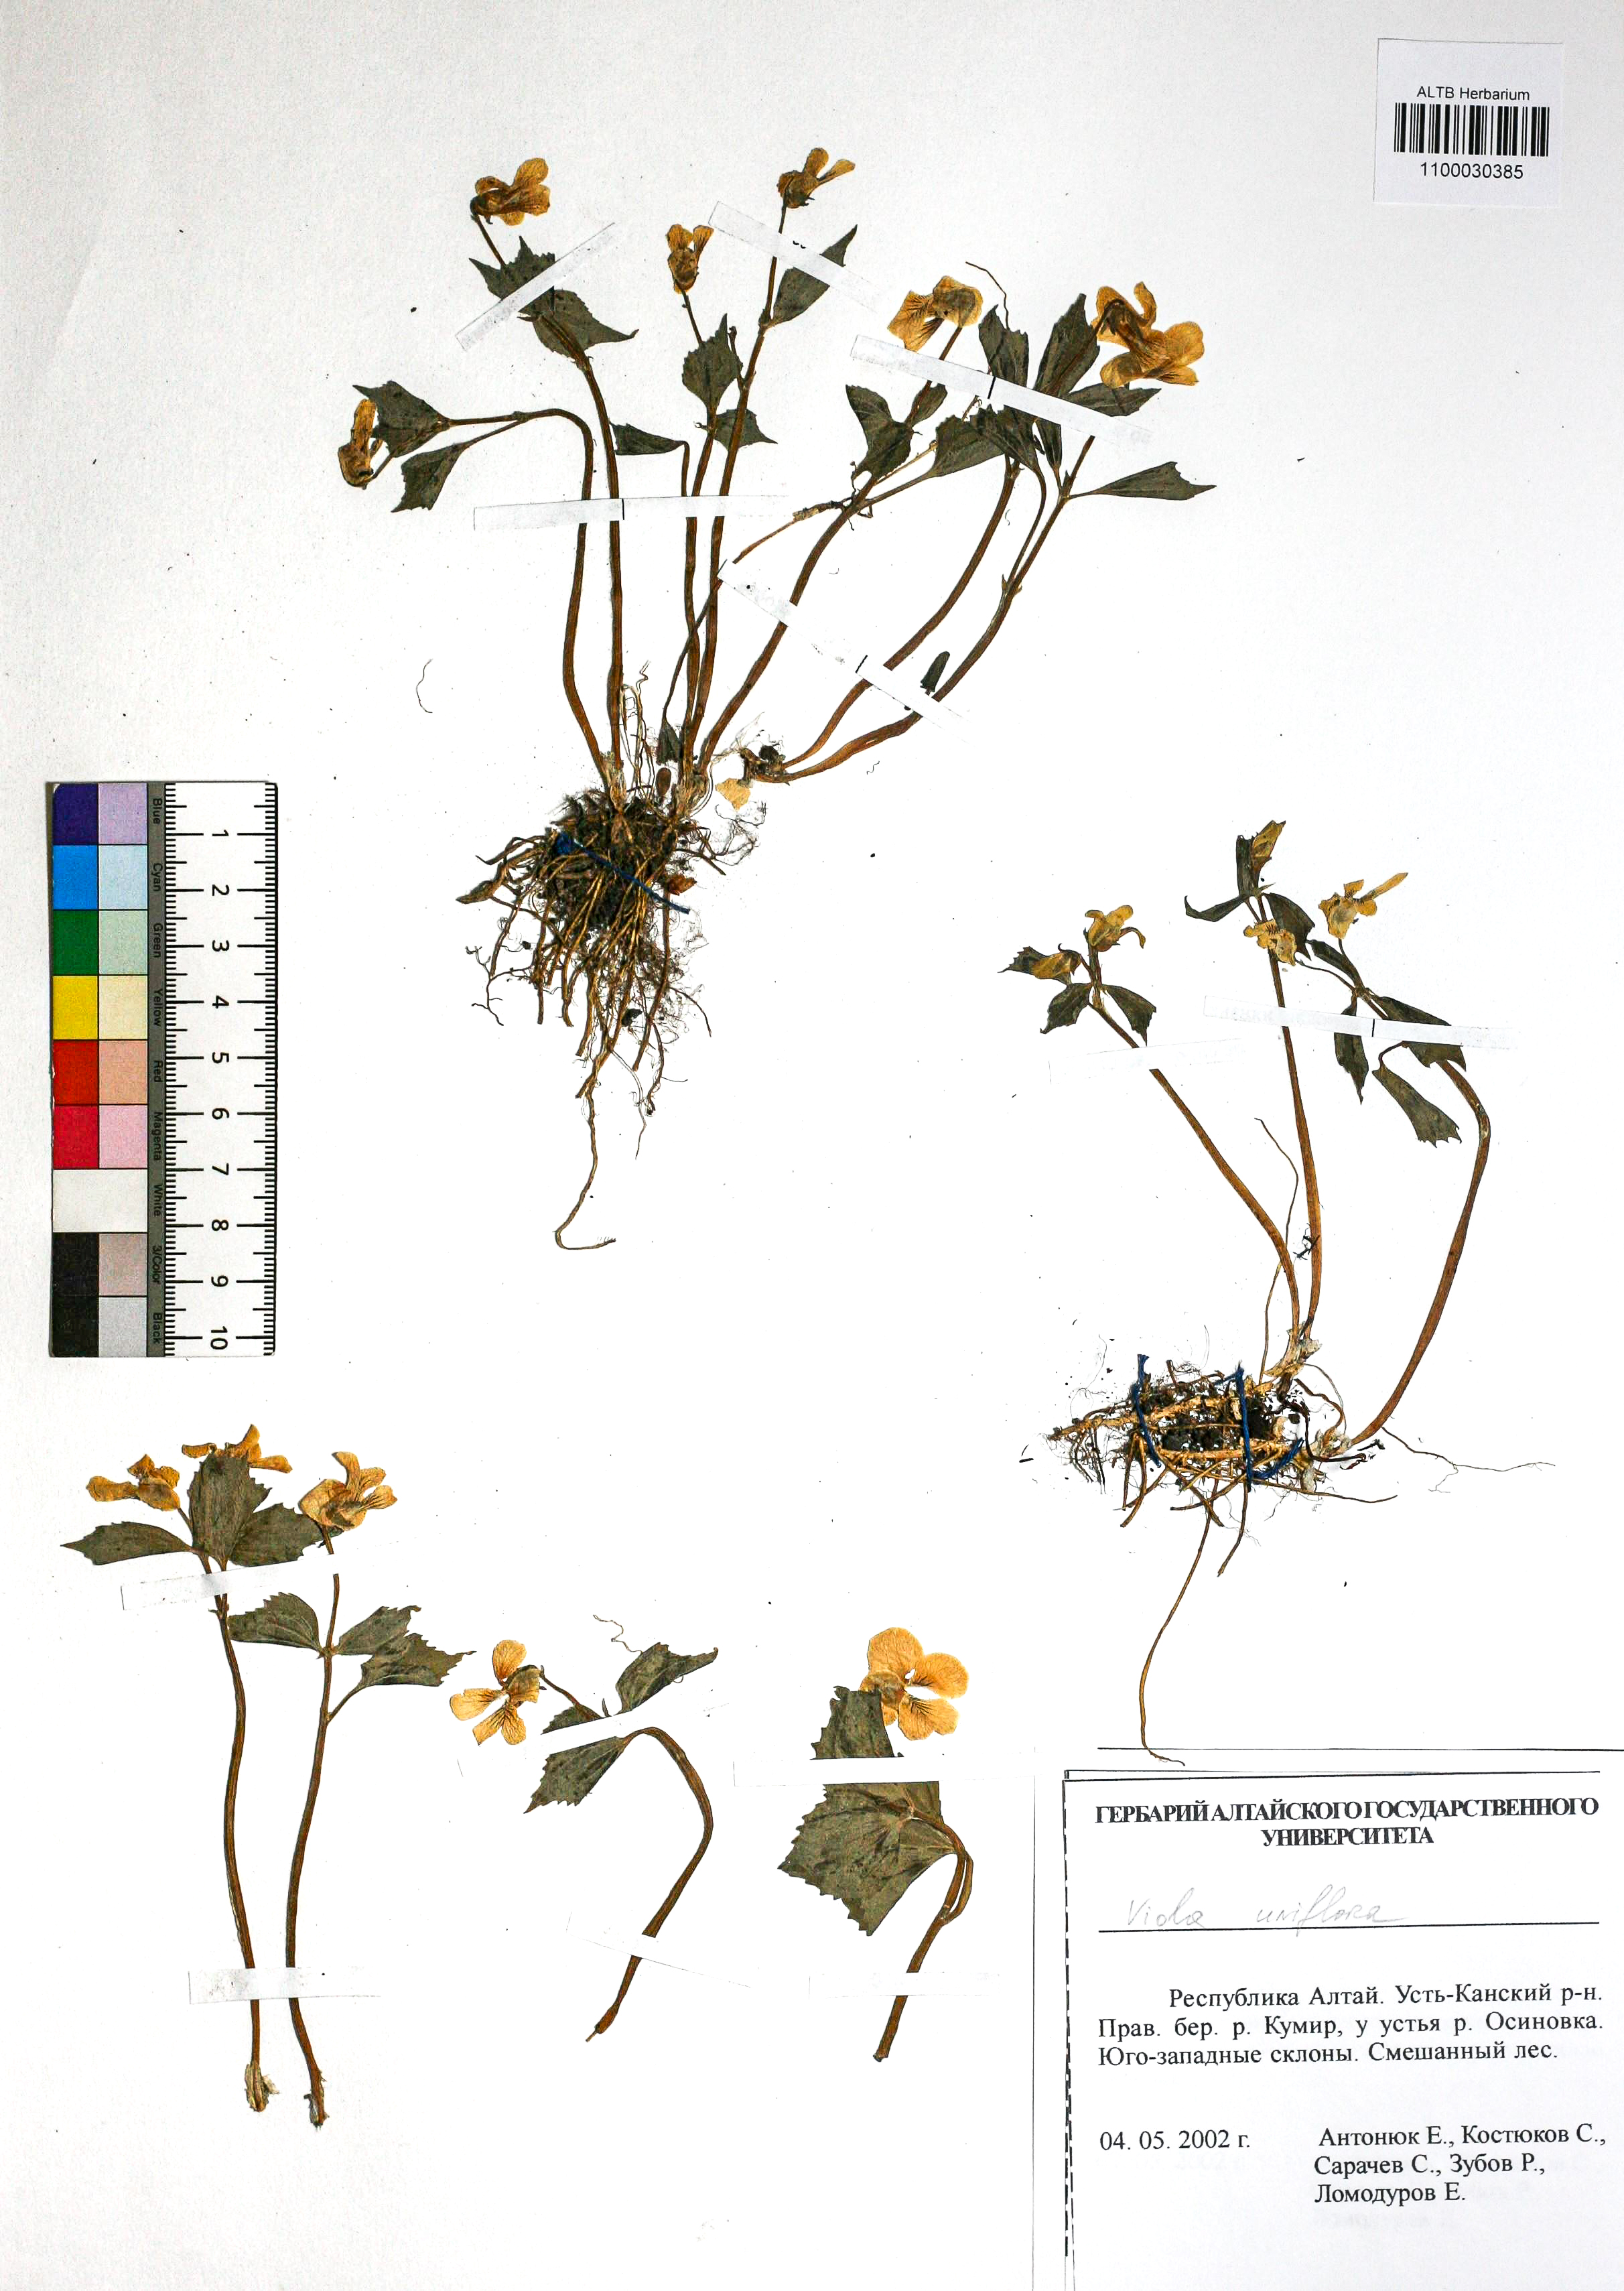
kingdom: Plantae
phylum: Tracheophyta
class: Magnoliopsida
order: Malpighiales
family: Violaceae
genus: Viola
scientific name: Viola uniflora
